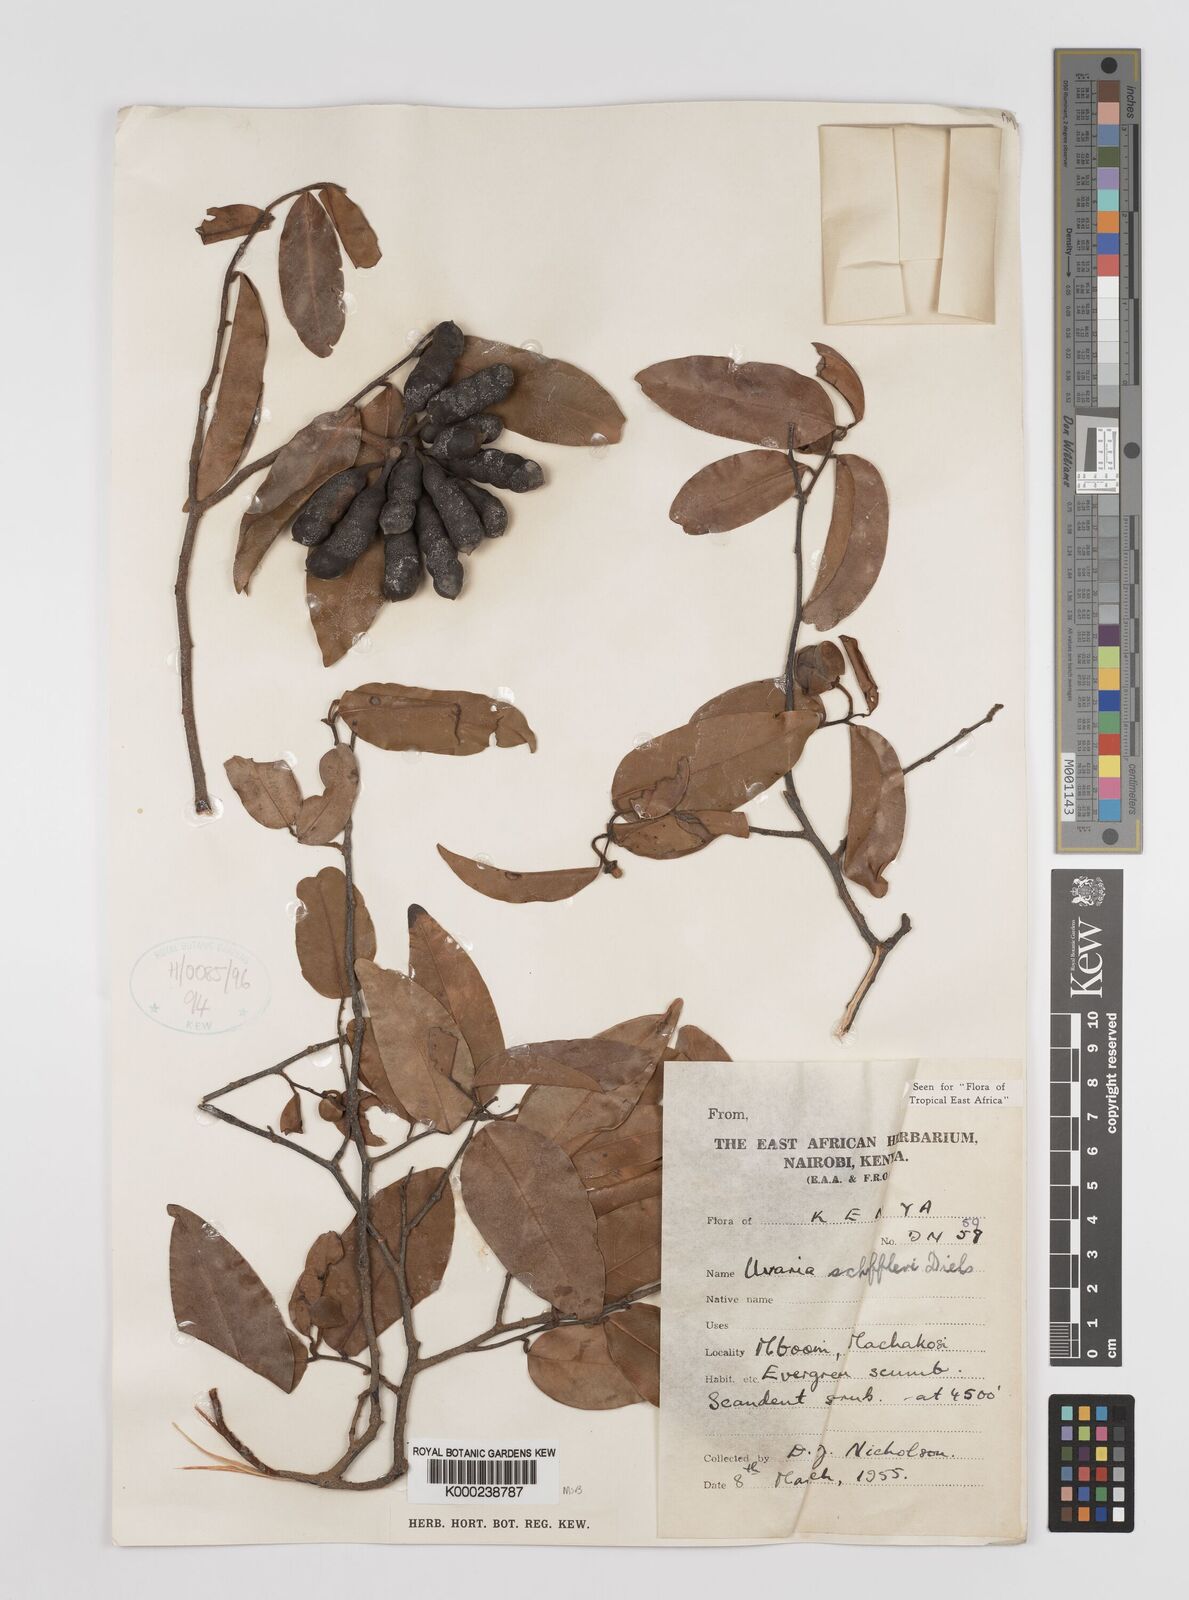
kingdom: Plantae
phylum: Tracheophyta
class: Magnoliopsida
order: Magnoliales
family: Annonaceae
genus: Uvaria
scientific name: Uvaria scheffleri
